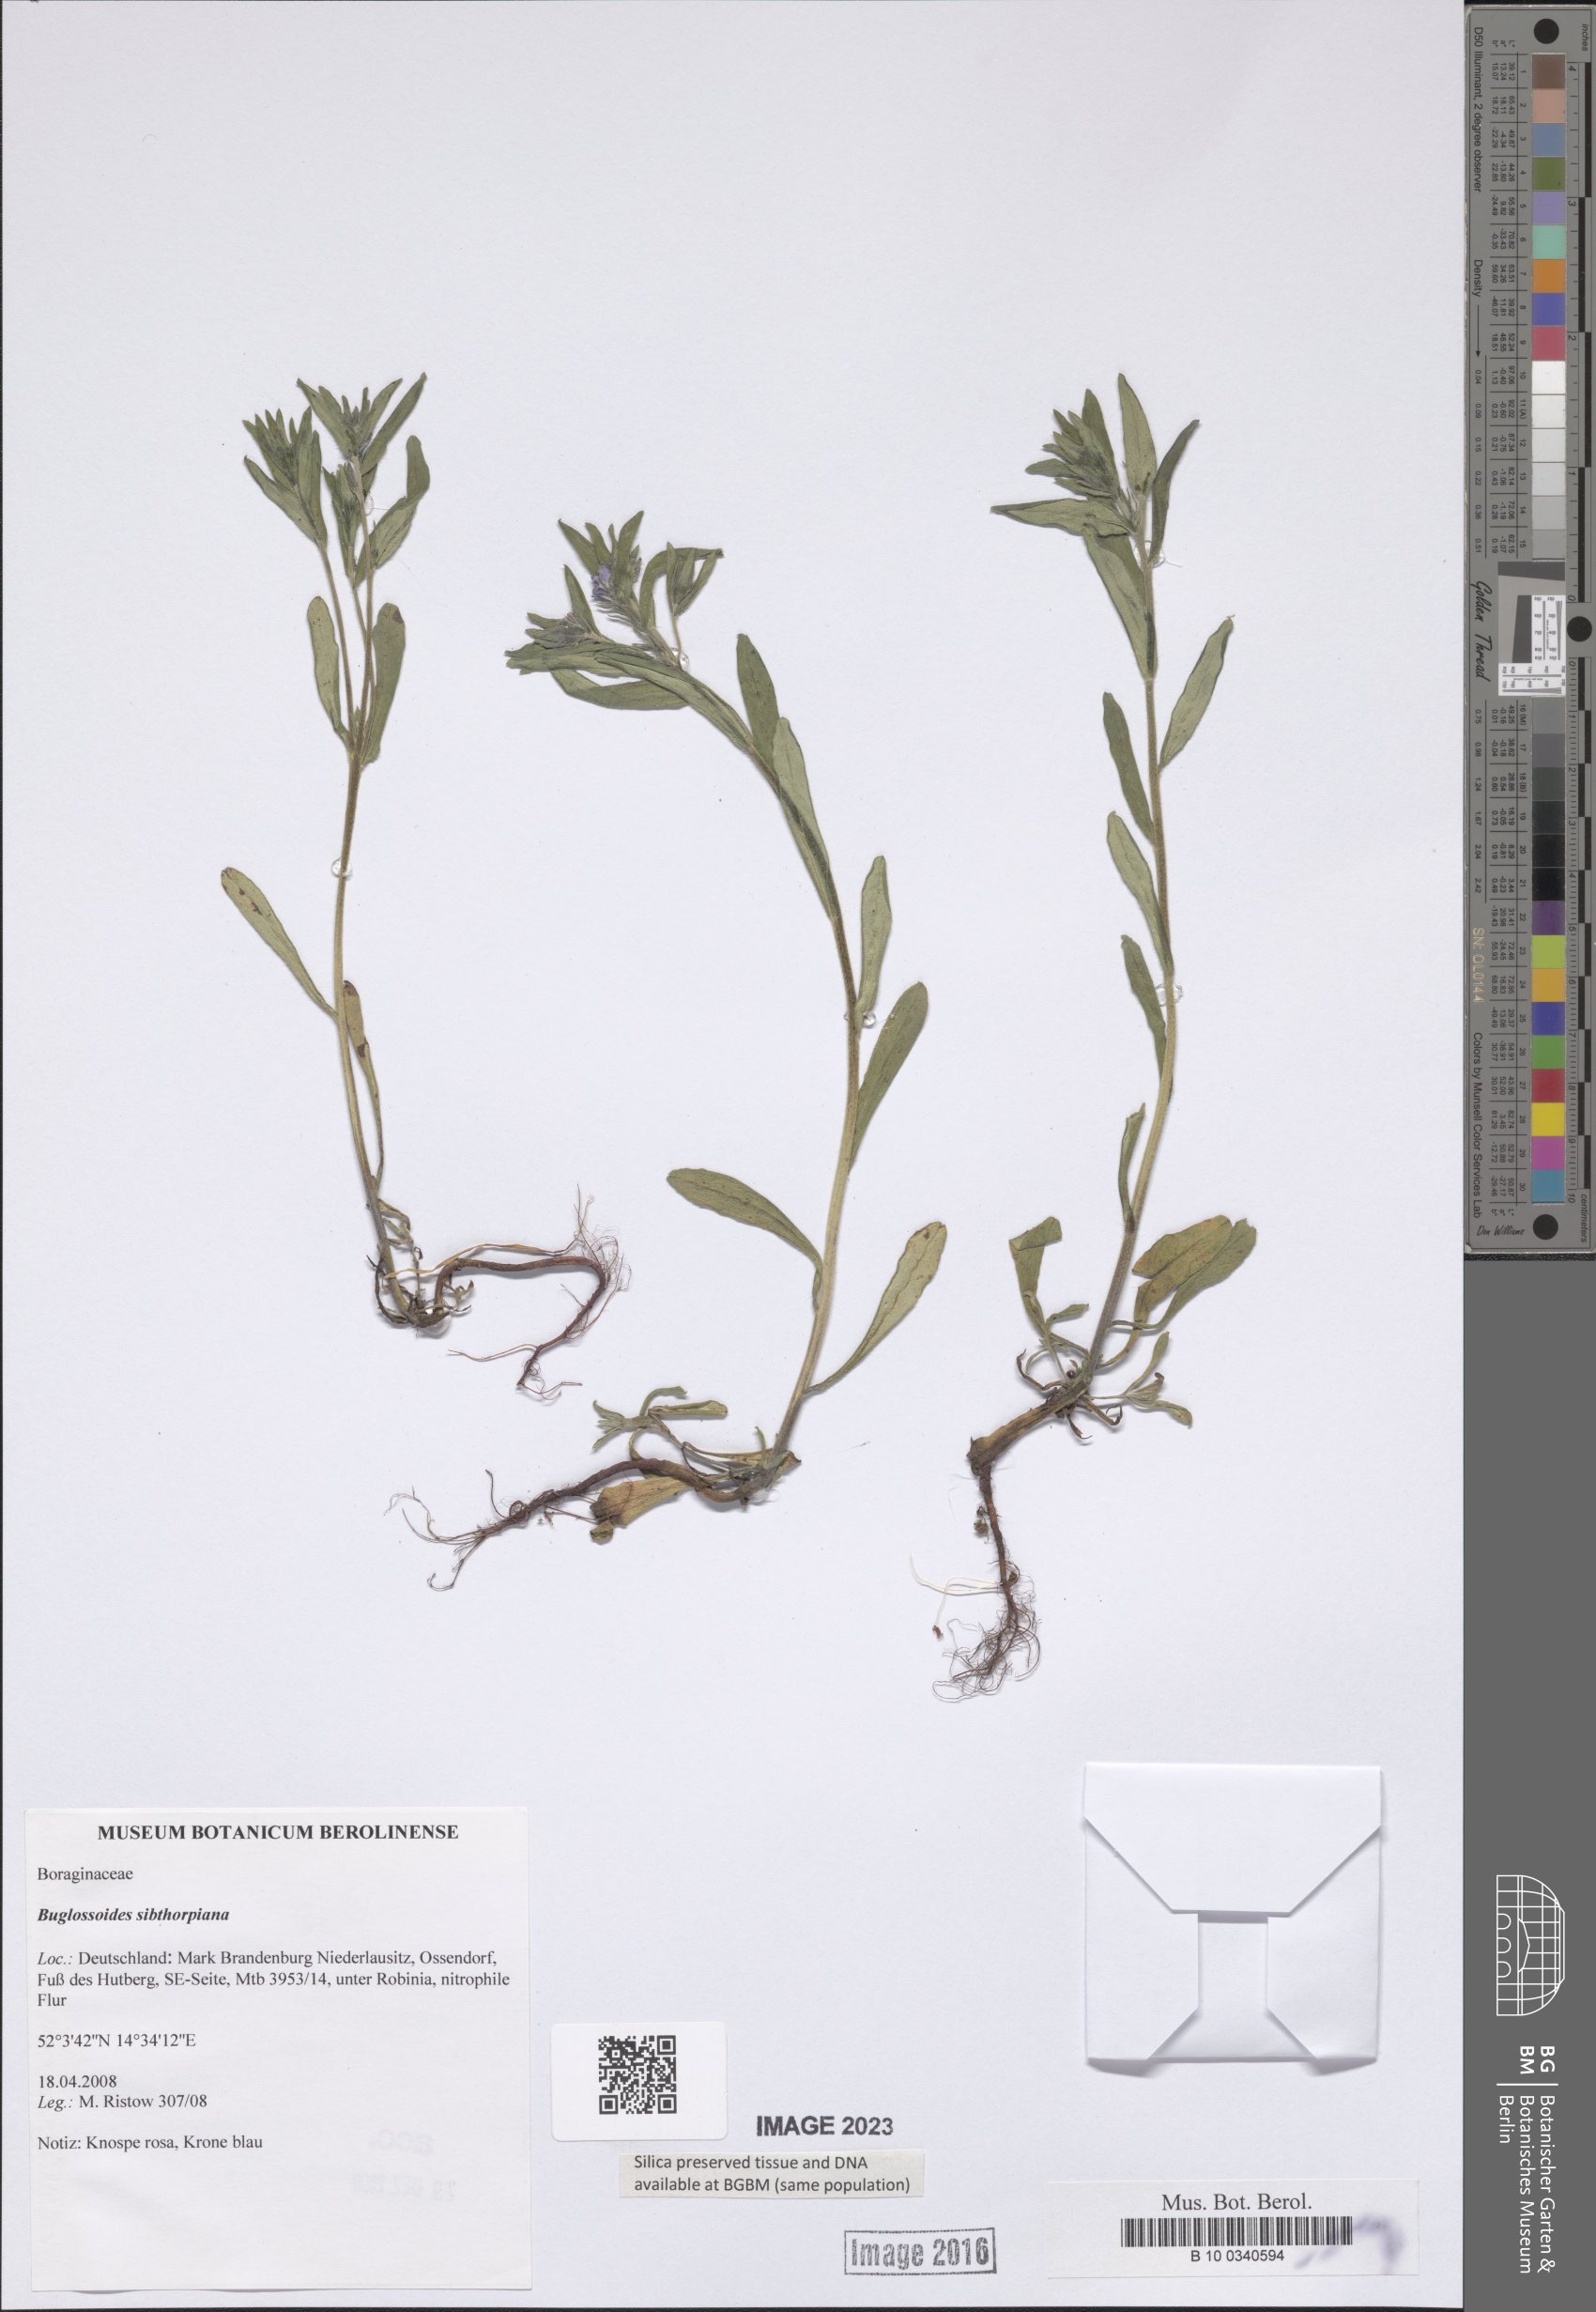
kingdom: Plantae
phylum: Tracheophyta
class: Magnoliopsida
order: Boraginales
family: Boraginaceae
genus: Buglossoides
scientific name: Buglossoides arvensis
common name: Corn gromwell
